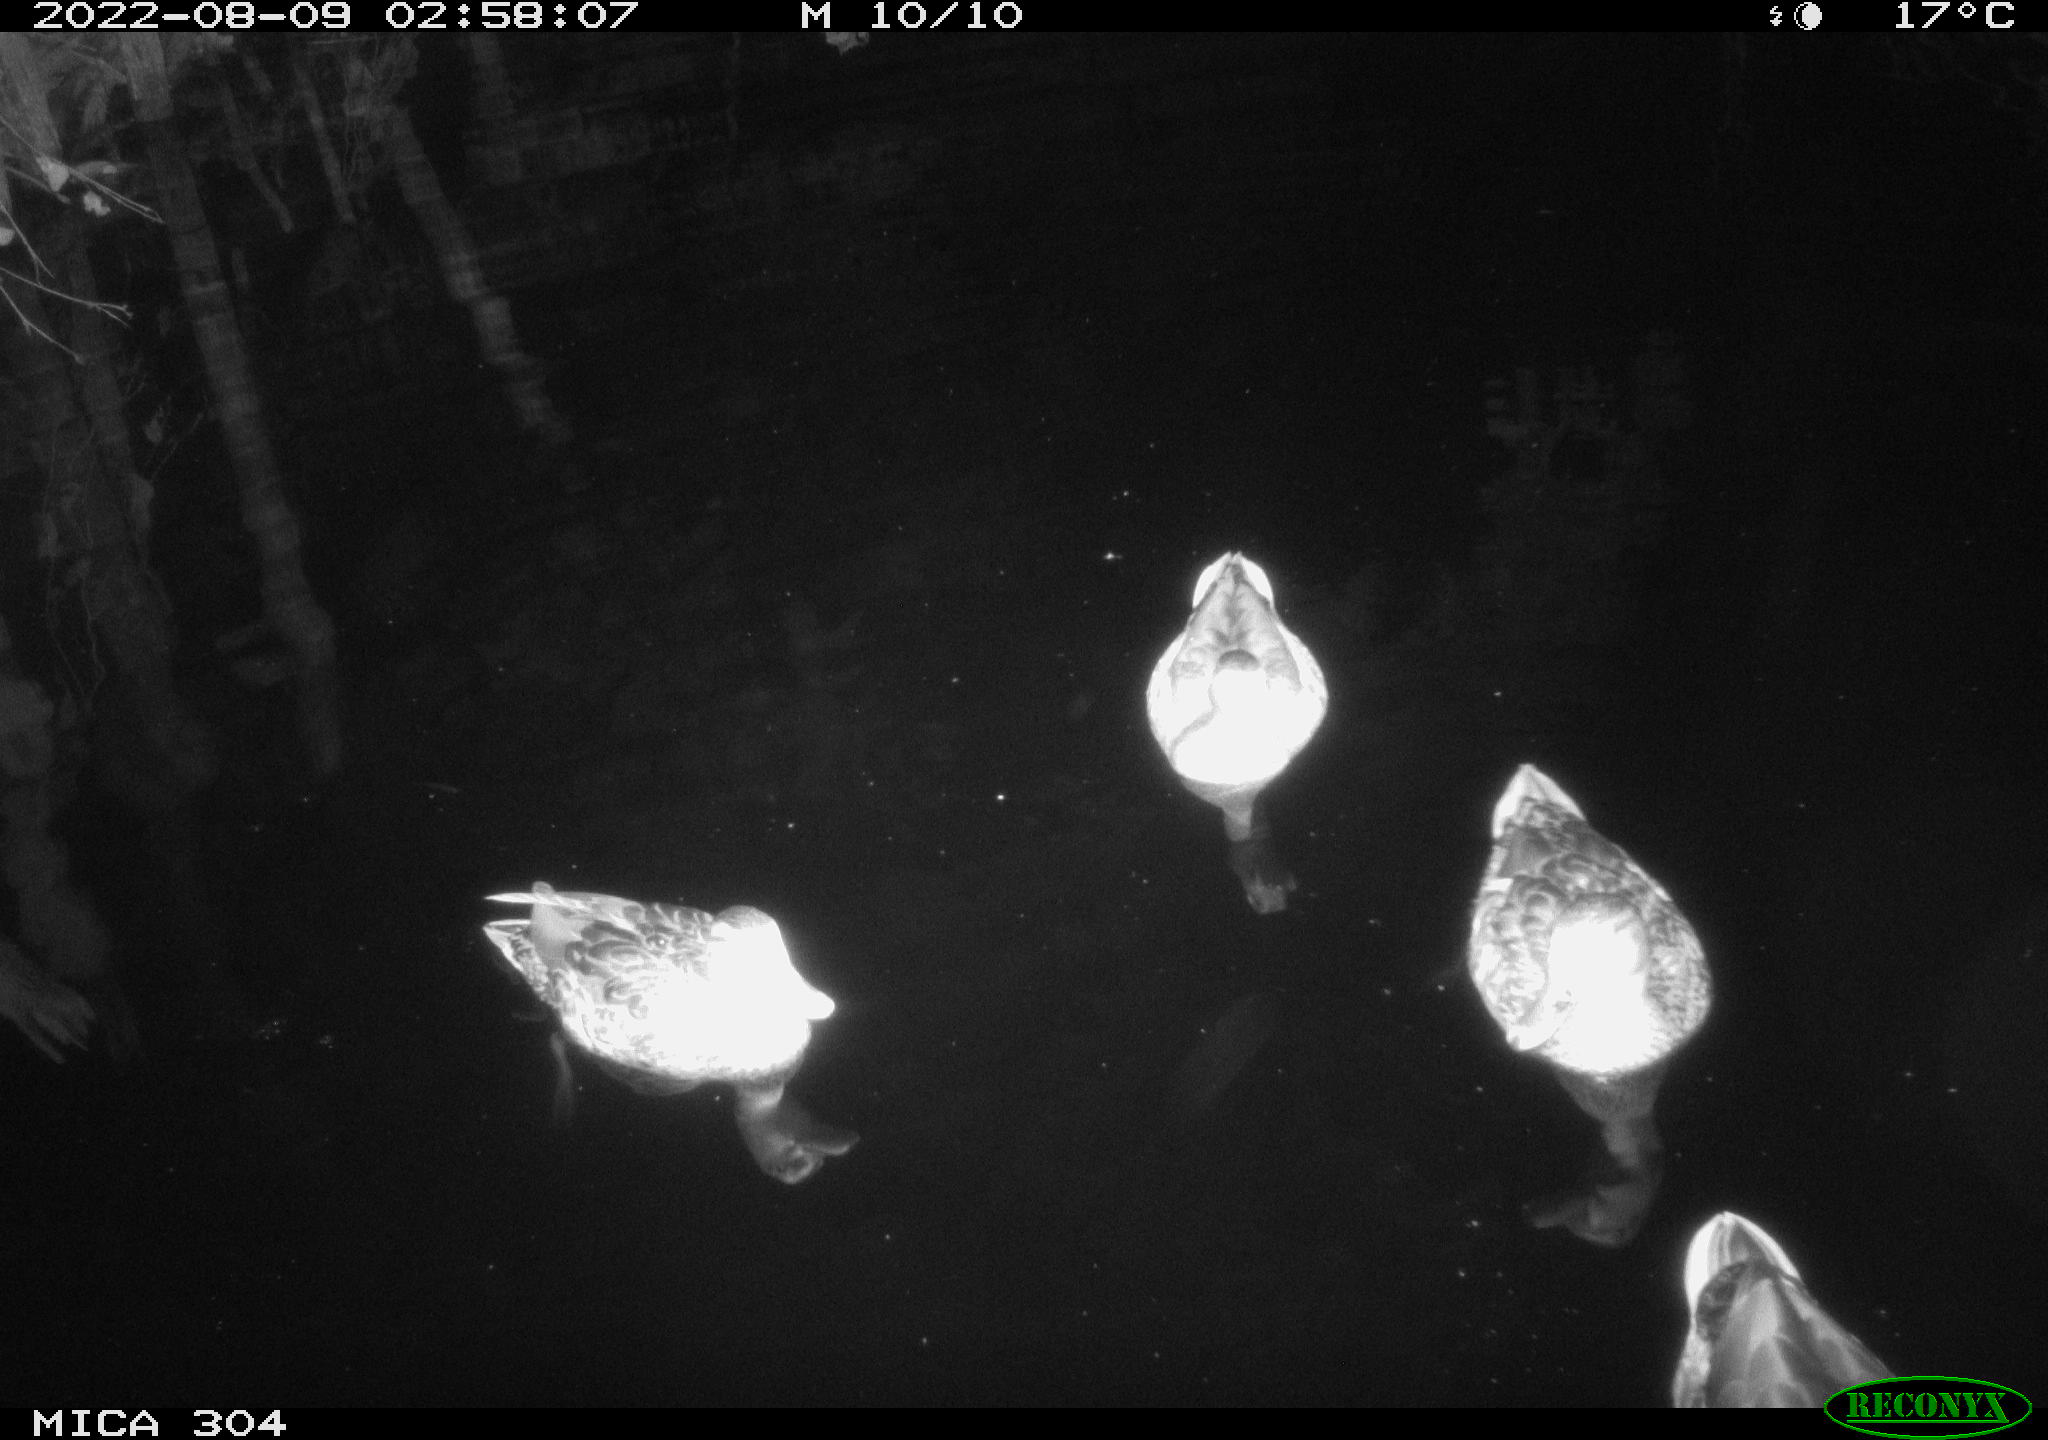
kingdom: Animalia
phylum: Chordata
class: Aves
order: Anseriformes
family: Anatidae
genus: Anas
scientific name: Anas platyrhynchos
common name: Mallard
